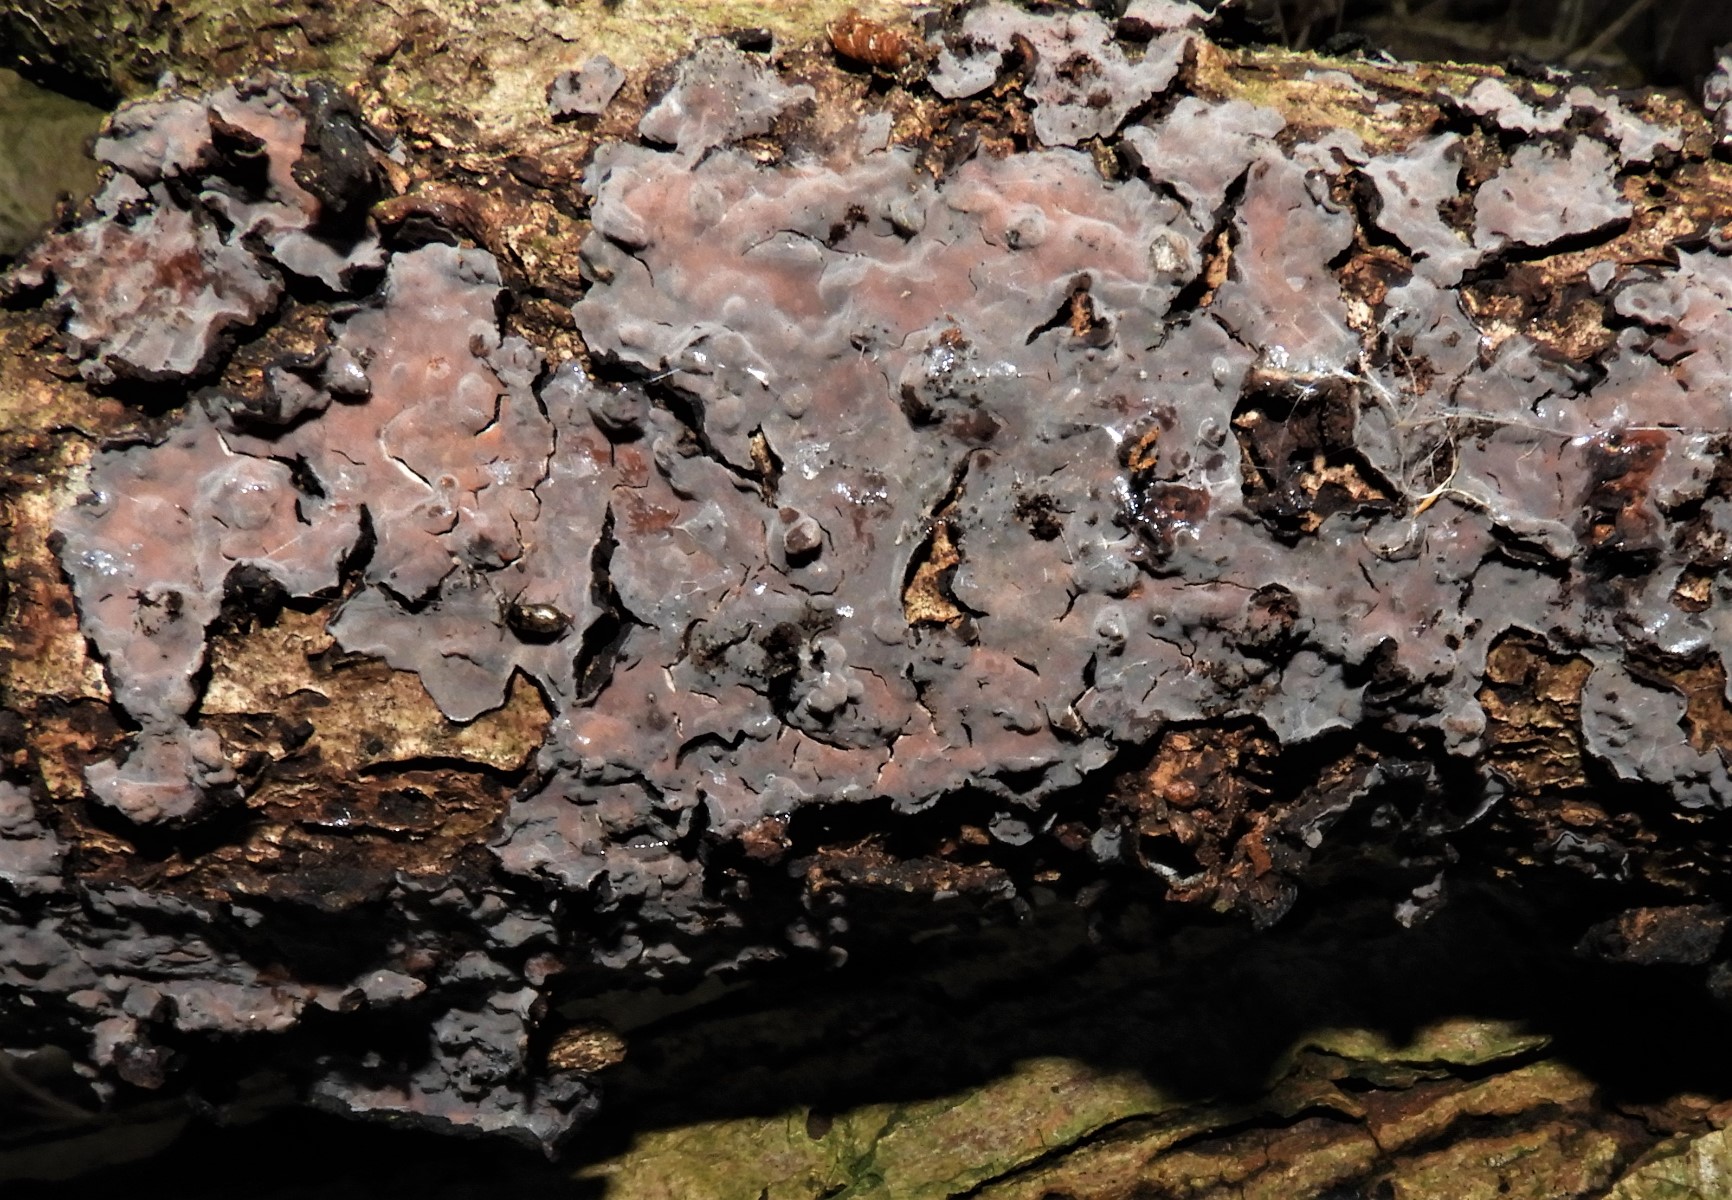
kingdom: Fungi
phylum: Basidiomycota
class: Agaricomycetes
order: Russulales
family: Peniophoraceae
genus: Peniophora
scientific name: Peniophora quercina
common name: ege-voksskind
